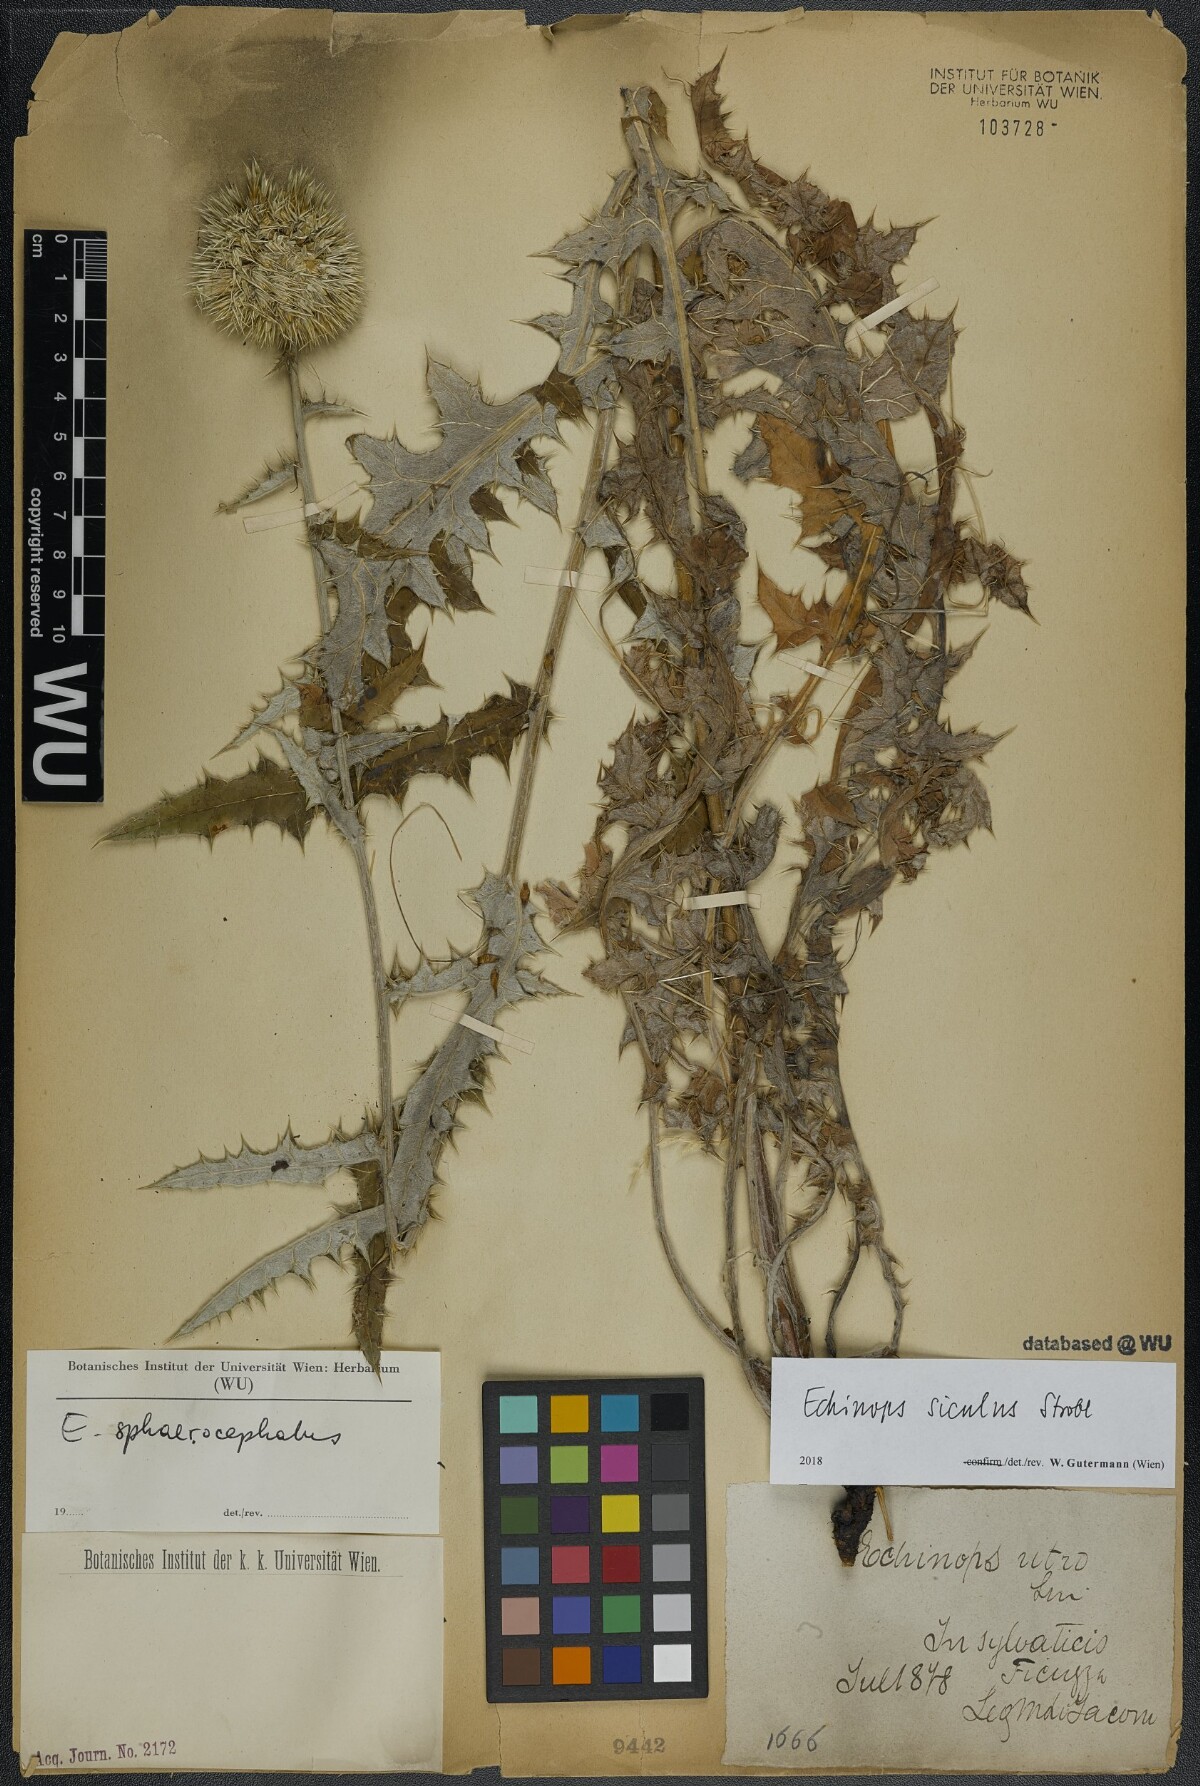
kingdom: Plantae
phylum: Tracheophyta
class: Magnoliopsida
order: Asterales
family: Asteraceae
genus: Echinops
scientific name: Echinops ritro
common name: Globe thistle
